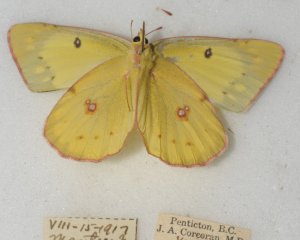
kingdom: Animalia
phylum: Arthropoda
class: Insecta
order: Lepidoptera
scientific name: Lepidoptera
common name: Butterflies
